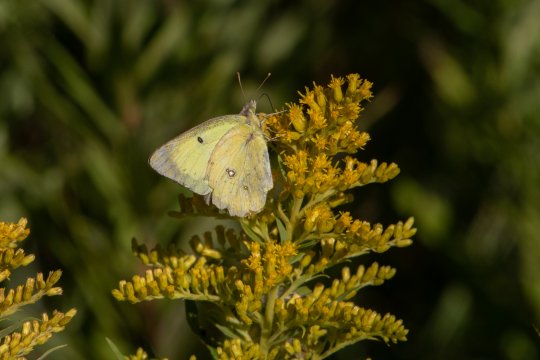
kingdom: Animalia
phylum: Arthropoda
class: Insecta
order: Lepidoptera
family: Pieridae
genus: Colias
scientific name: Colias eurytheme
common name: Orange Sulphur
